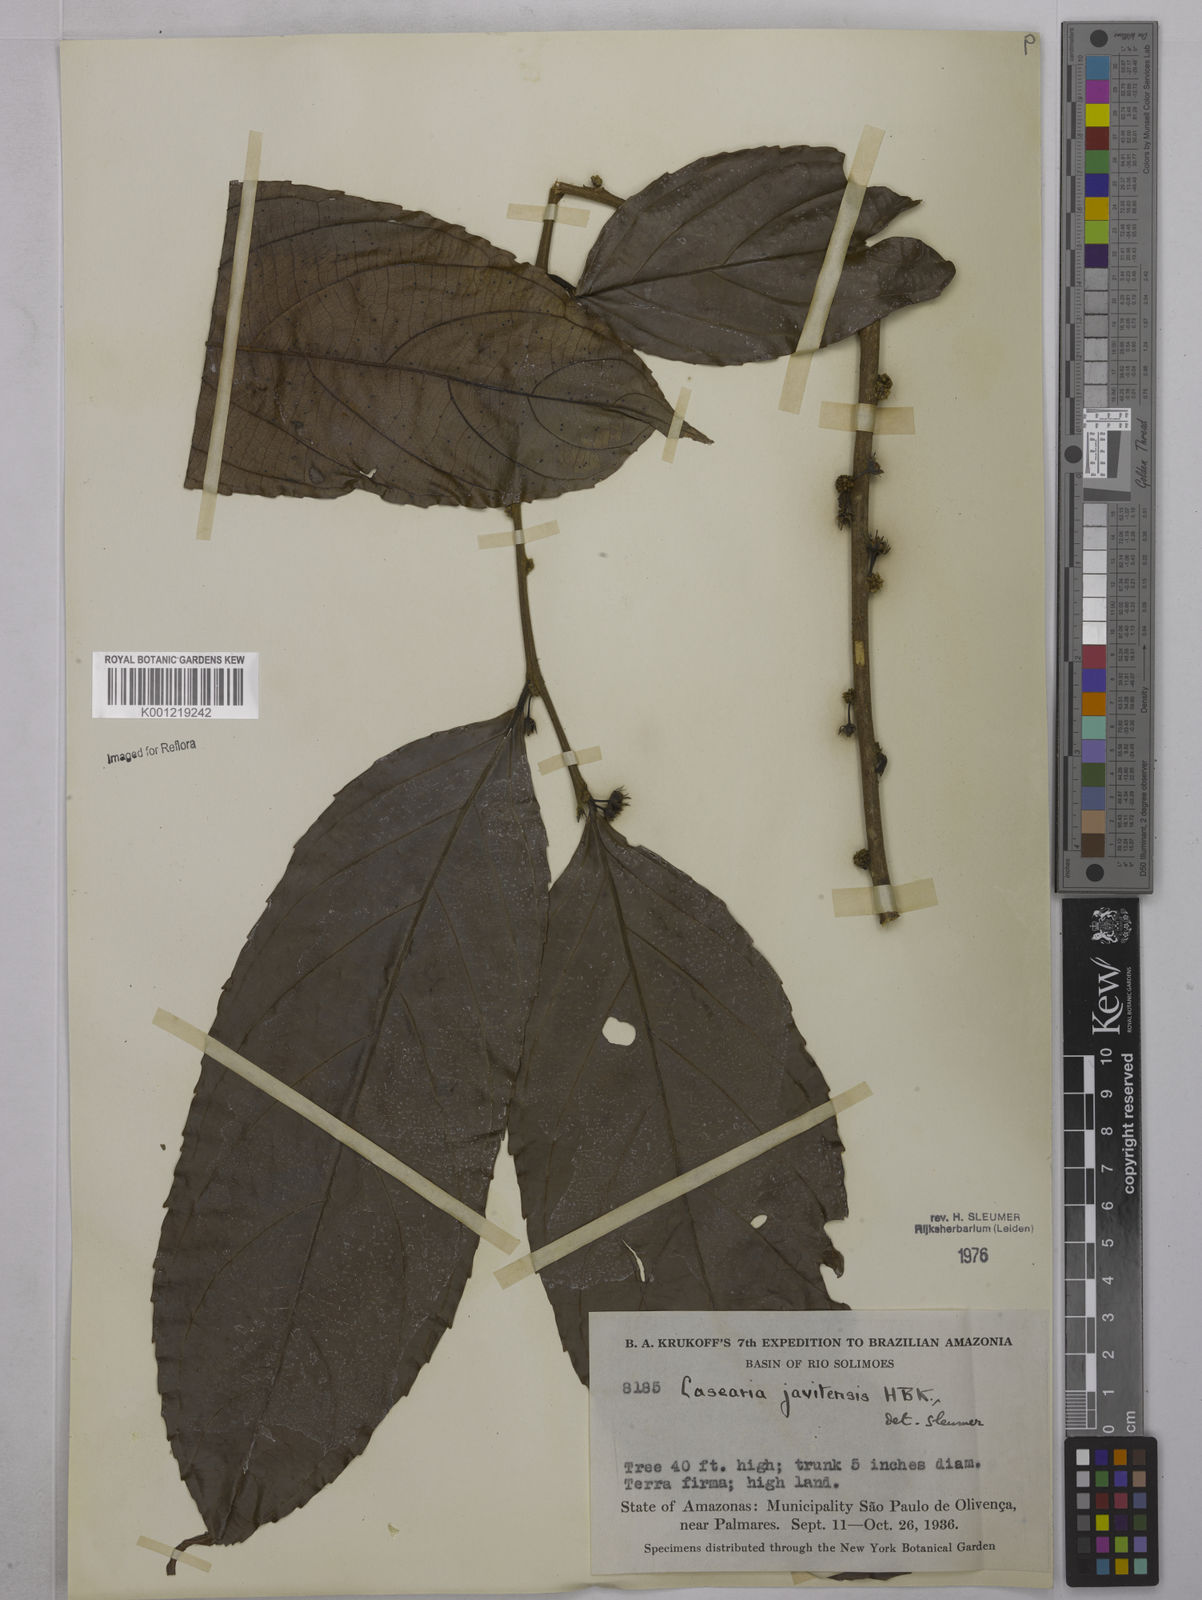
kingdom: Plantae
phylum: Tracheophyta
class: Magnoliopsida
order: Malpighiales
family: Salicaceae
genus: Piparea
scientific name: Piparea multiflora
